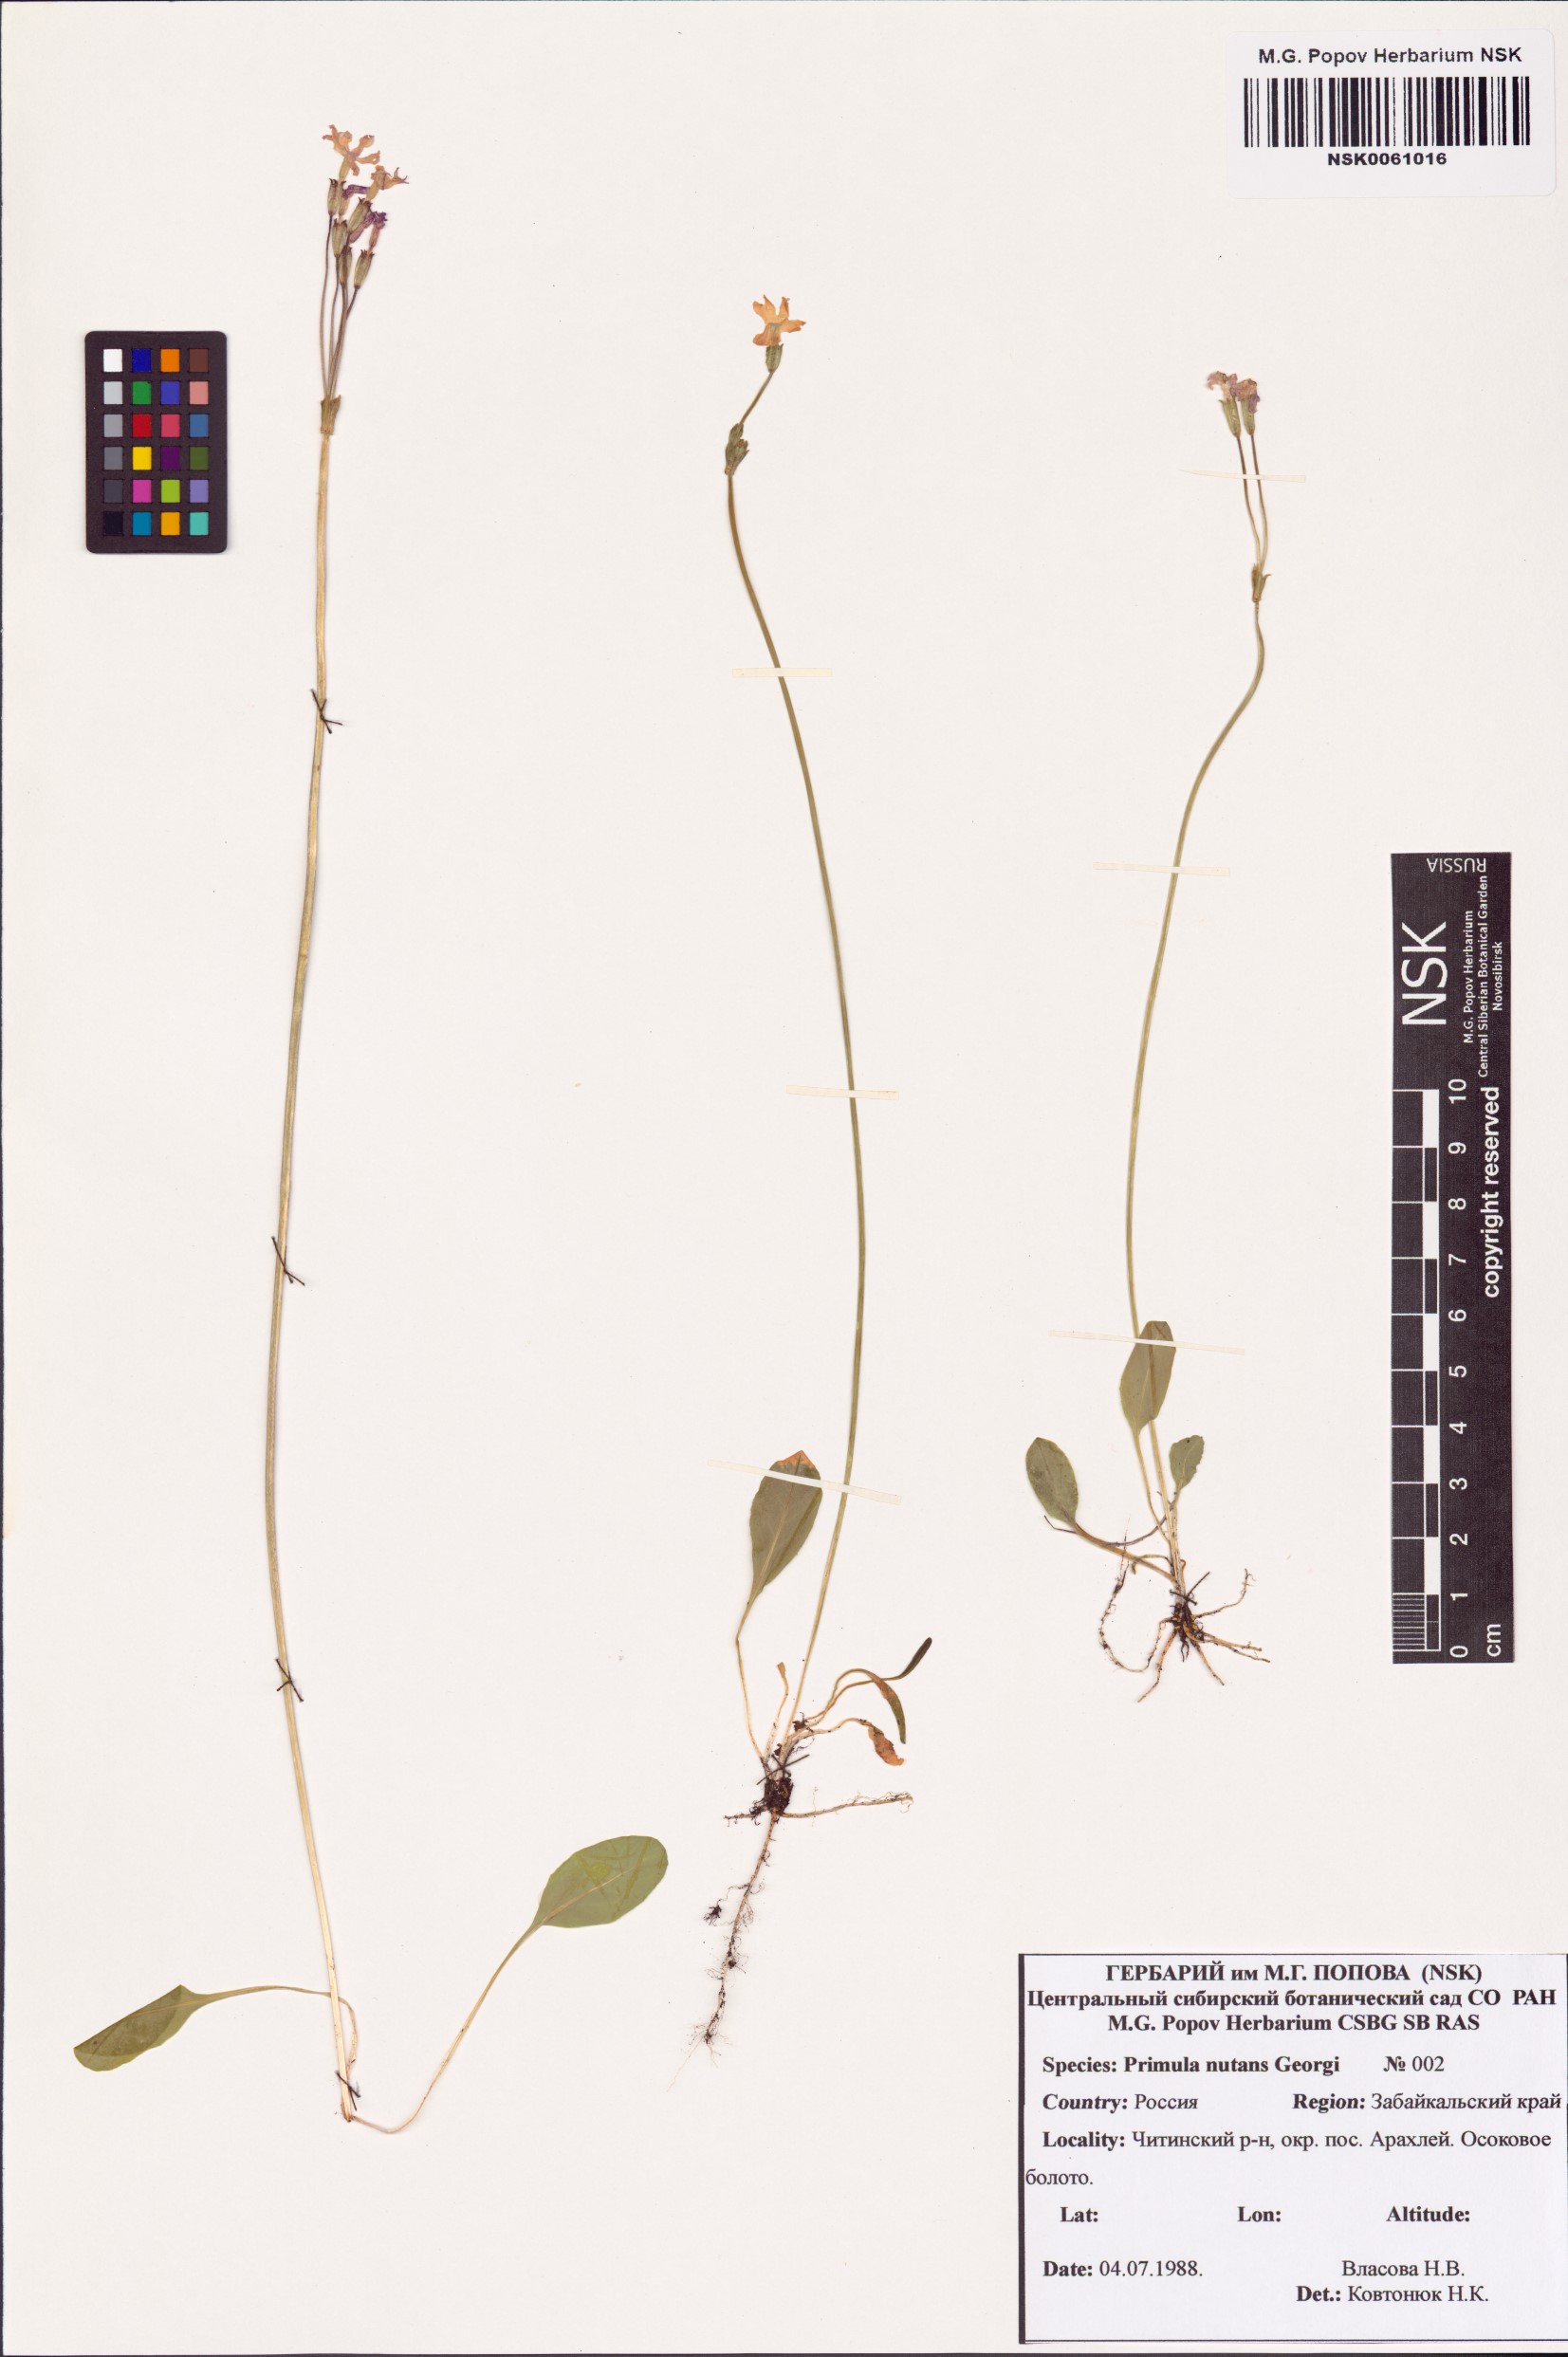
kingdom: Plantae
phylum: Tracheophyta
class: Magnoliopsida
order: Ericales
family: Primulaceae
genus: Primula
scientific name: Primula nutans
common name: Siberian primrose
